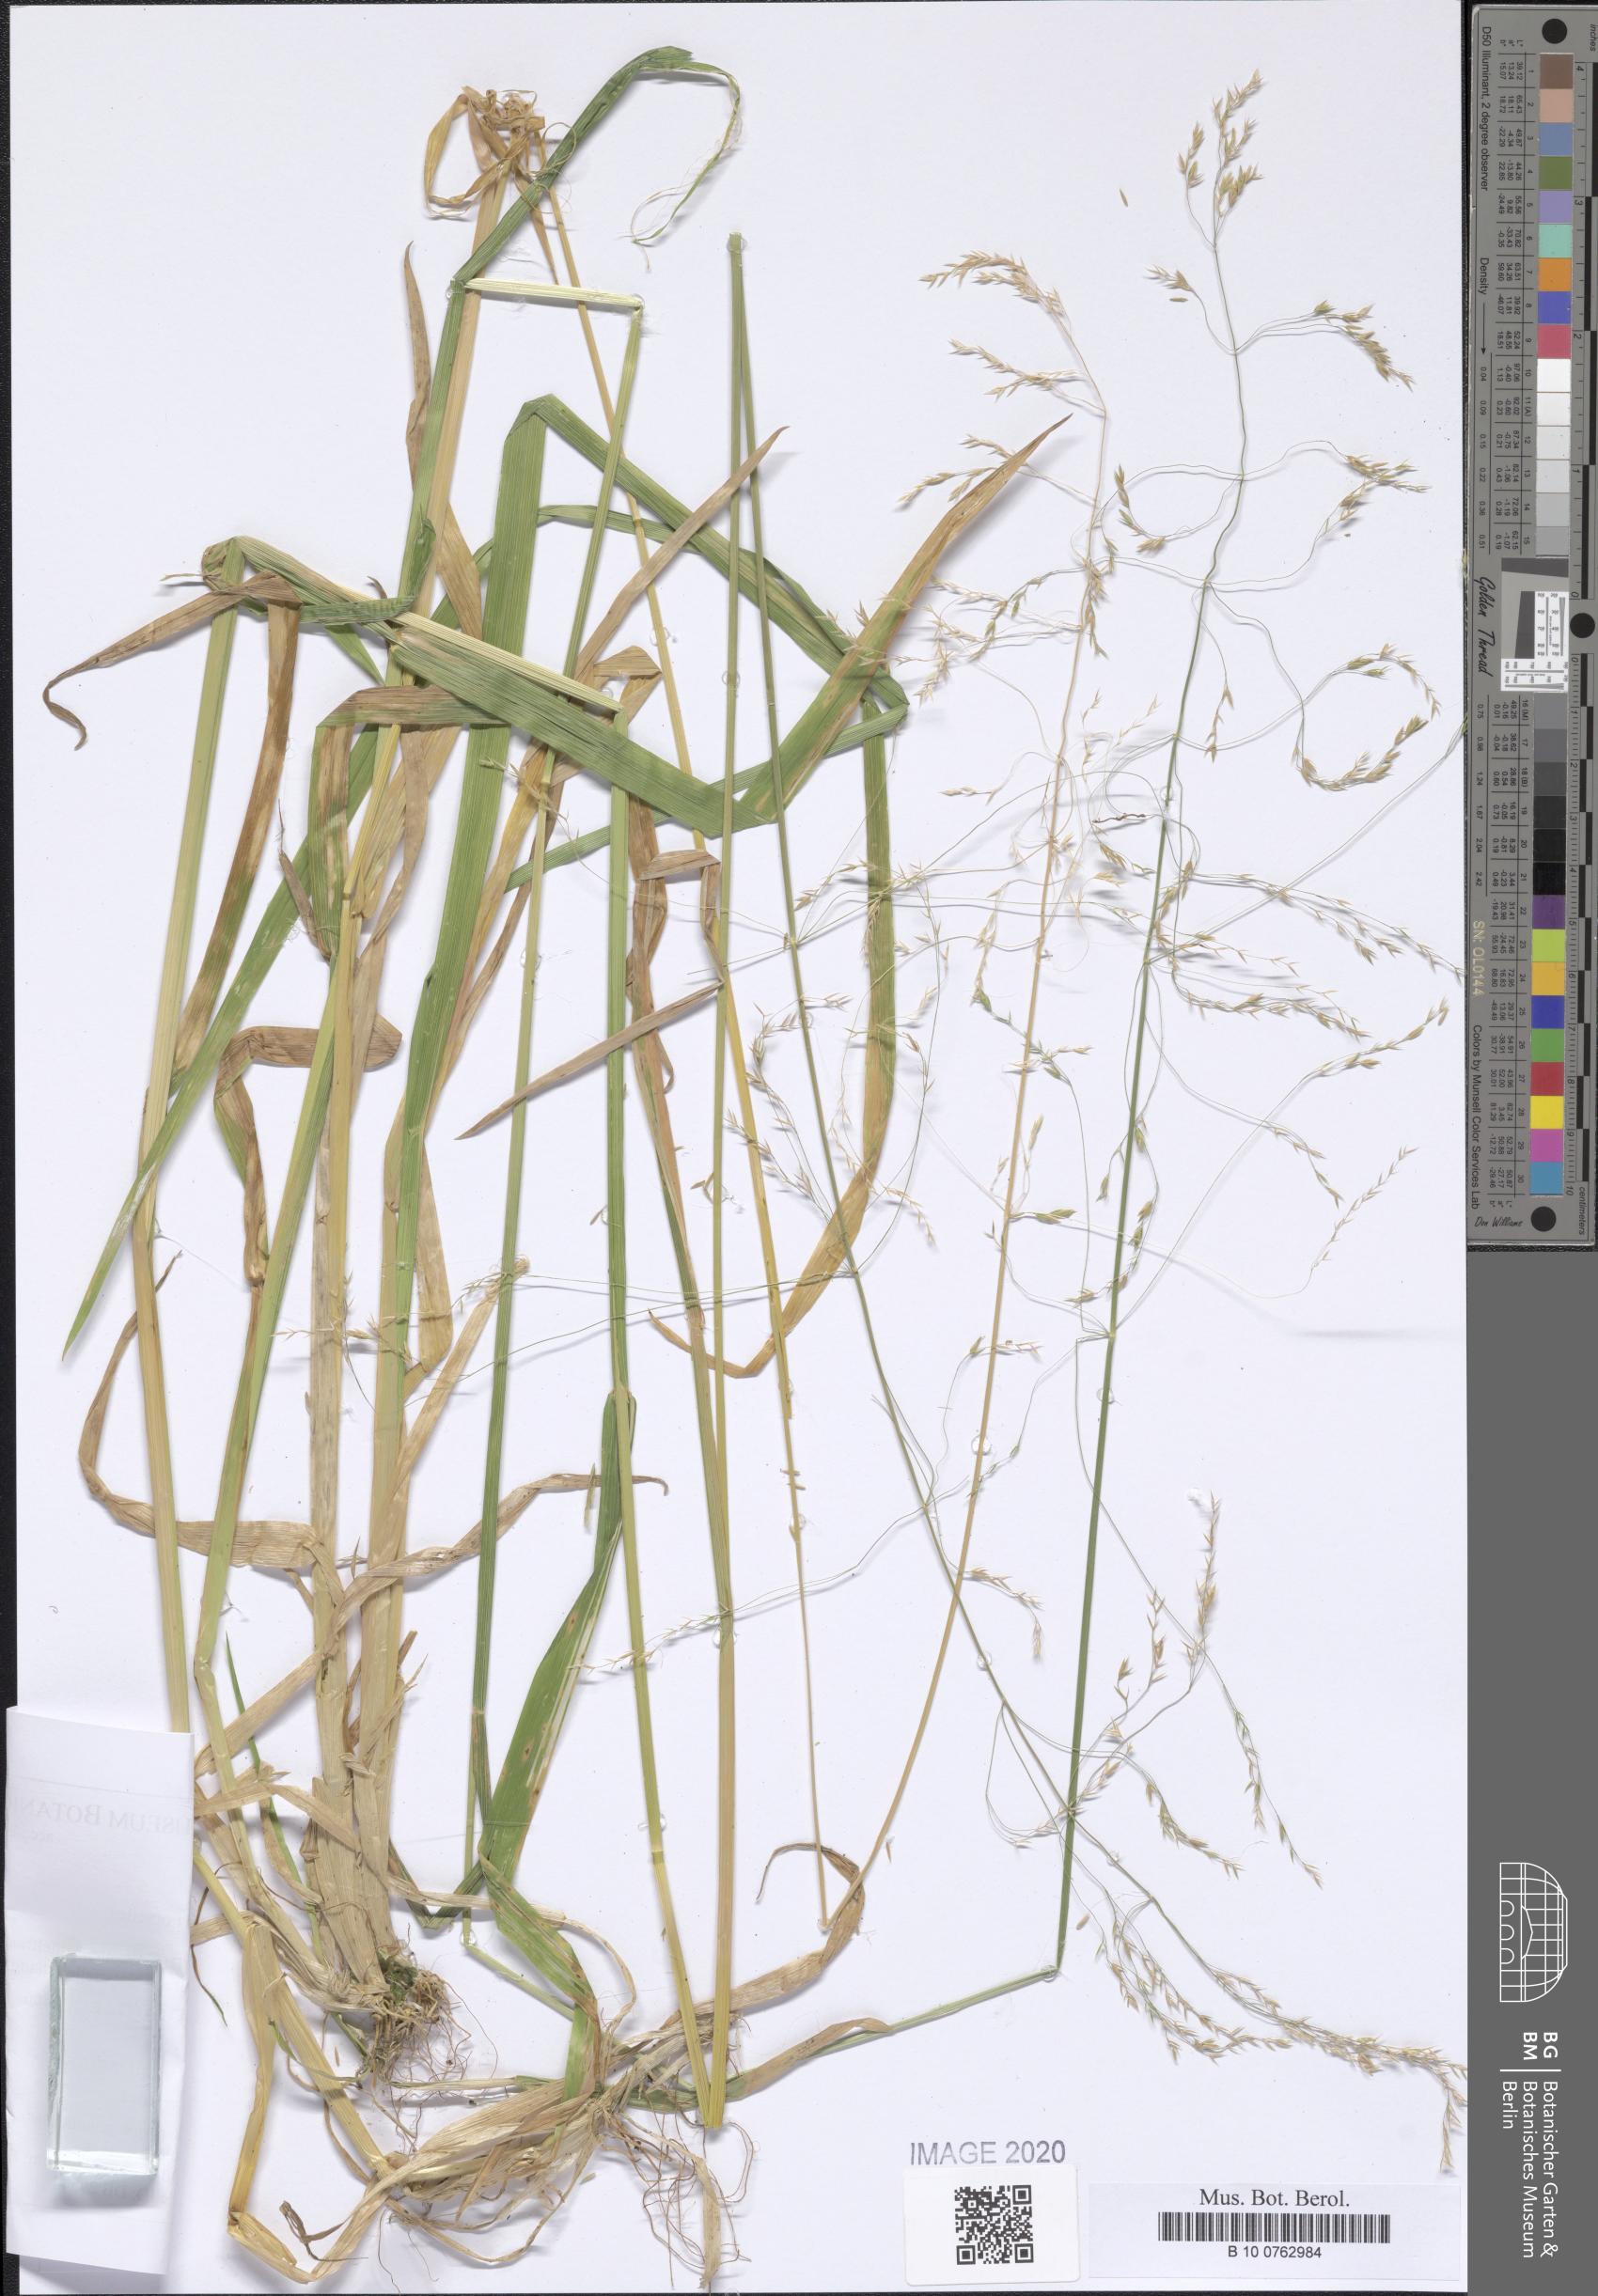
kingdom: Plantae
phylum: Tracheophyta
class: Liliopsida
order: Poales
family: Poaceae
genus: Poa
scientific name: Poa remota
